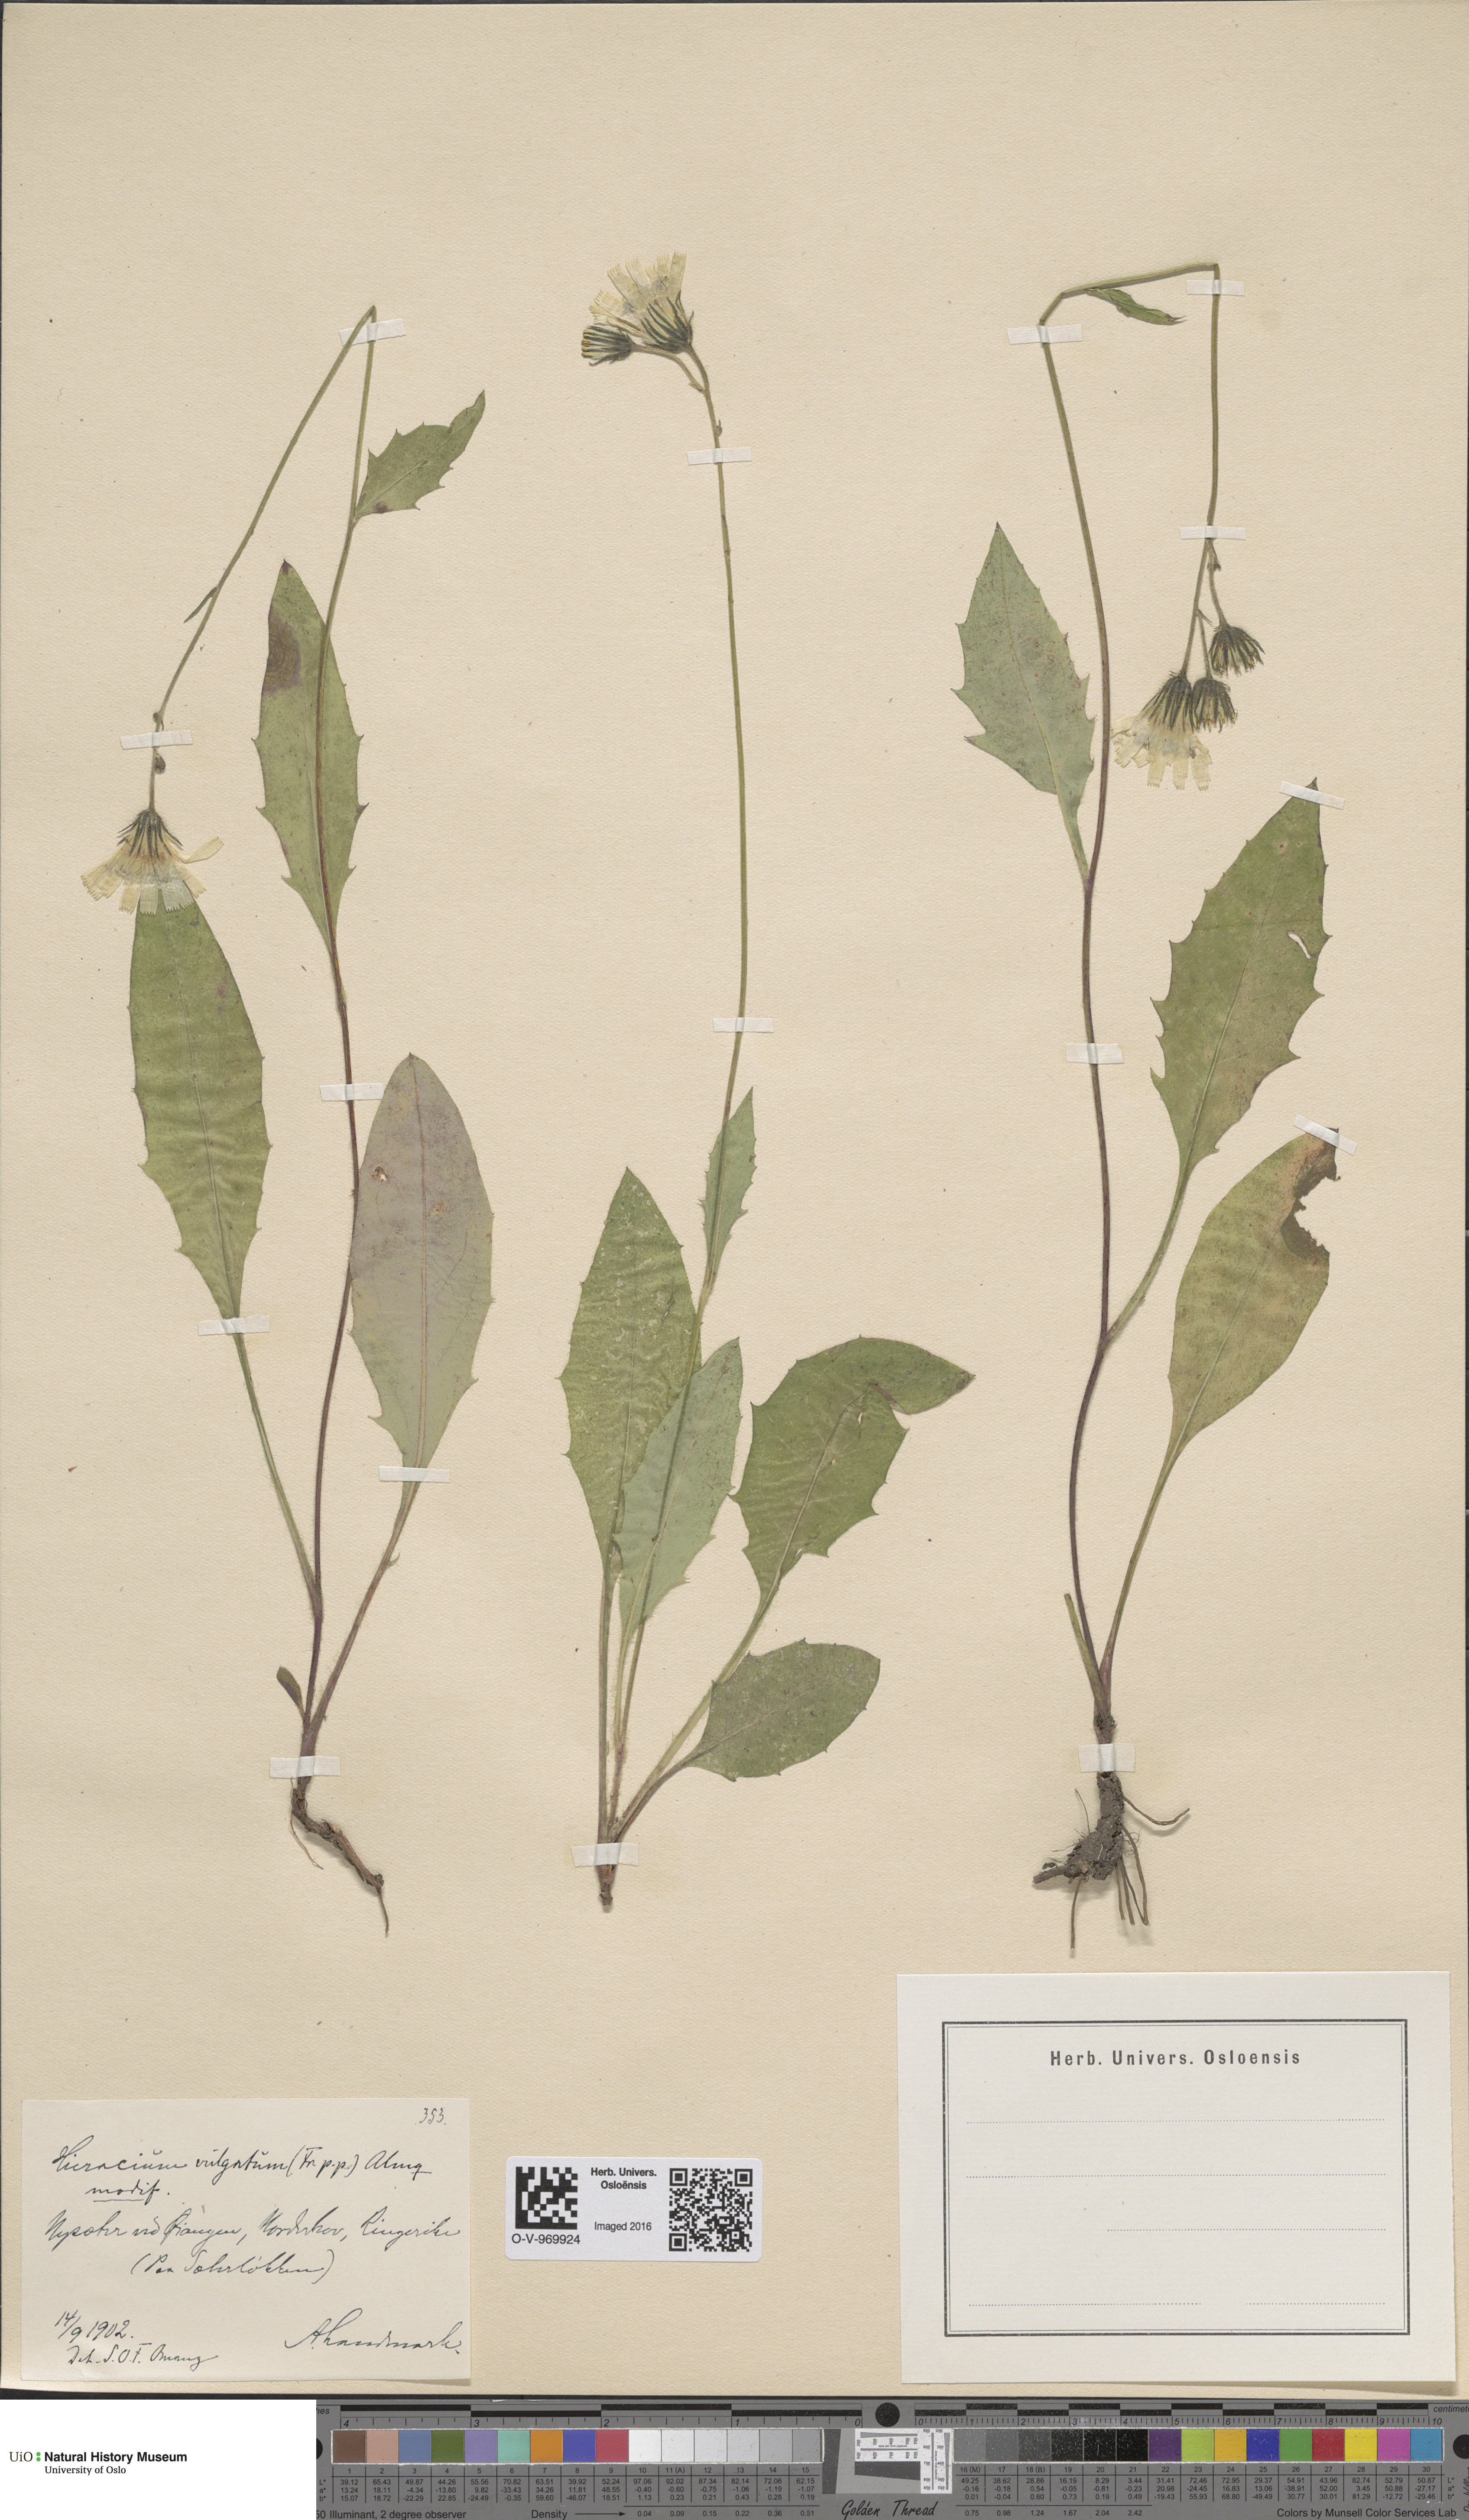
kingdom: Plantae
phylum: Tracheophyta
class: Magnoliopsida
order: Asterales
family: Asteraceae
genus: Hieracium
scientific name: Hieracium vulgatum
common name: Common hawkweed
